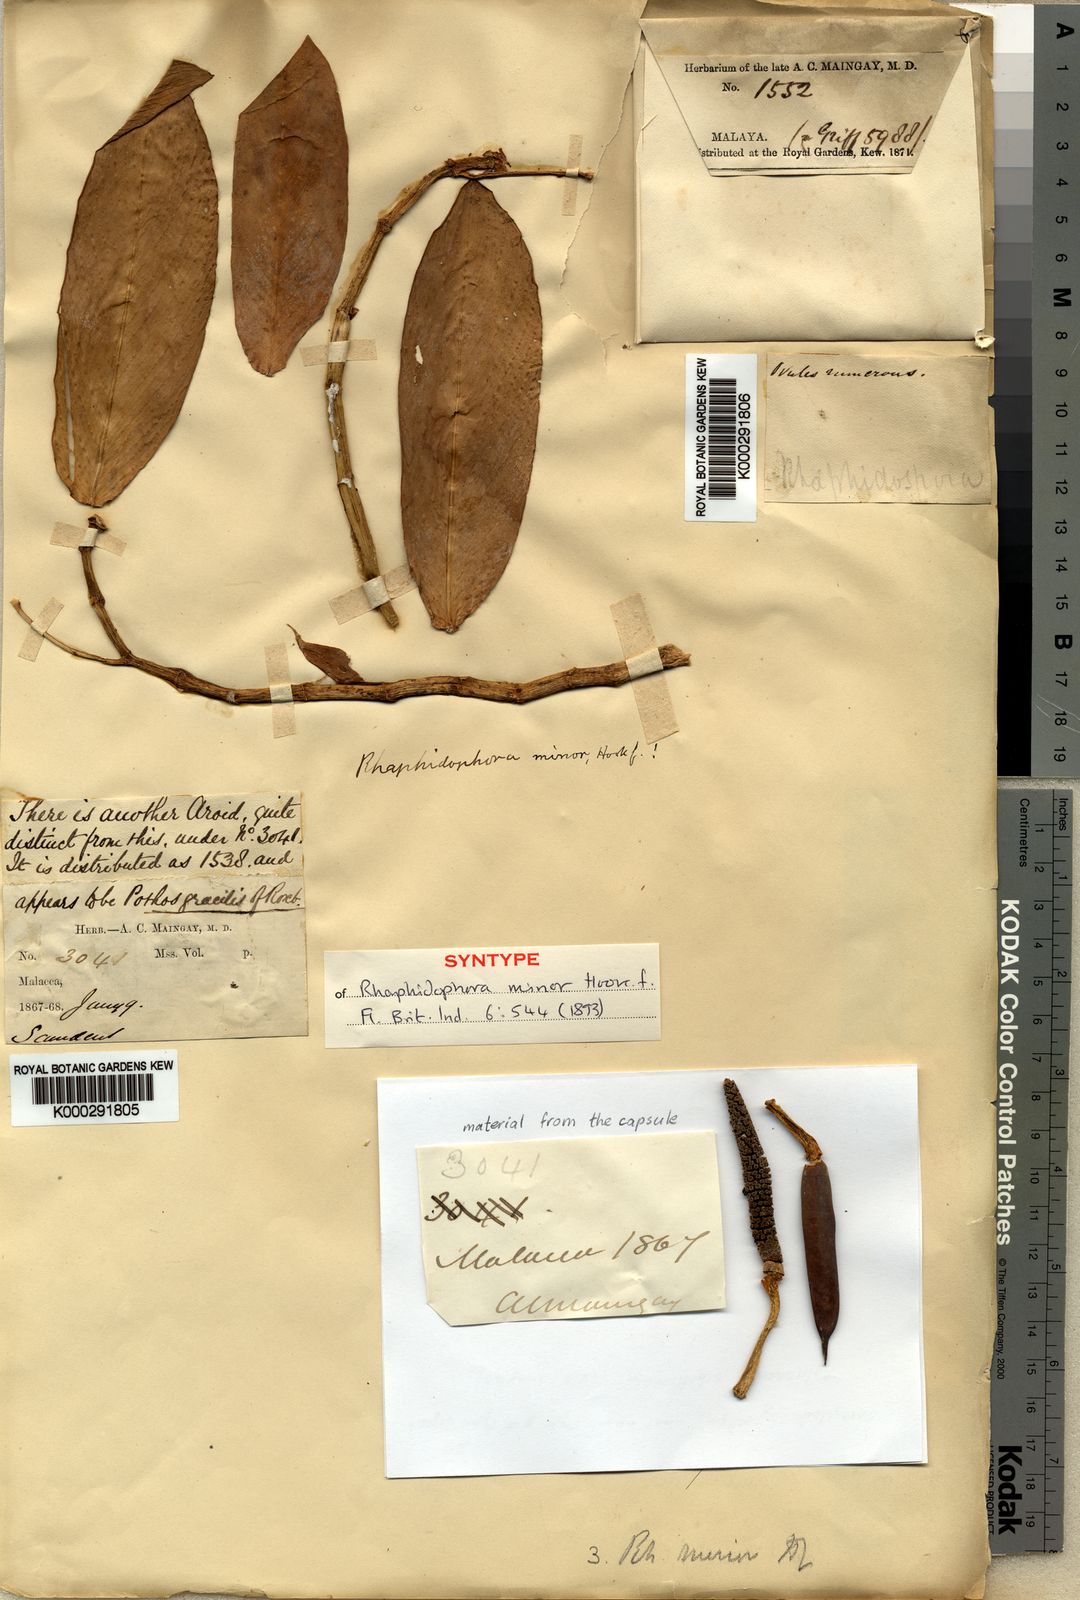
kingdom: Plantae
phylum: Tracheophyta
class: Liliopsida
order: Alismatales
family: Araceae
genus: Rhaphidophora
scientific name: Rhaphidophora minor
